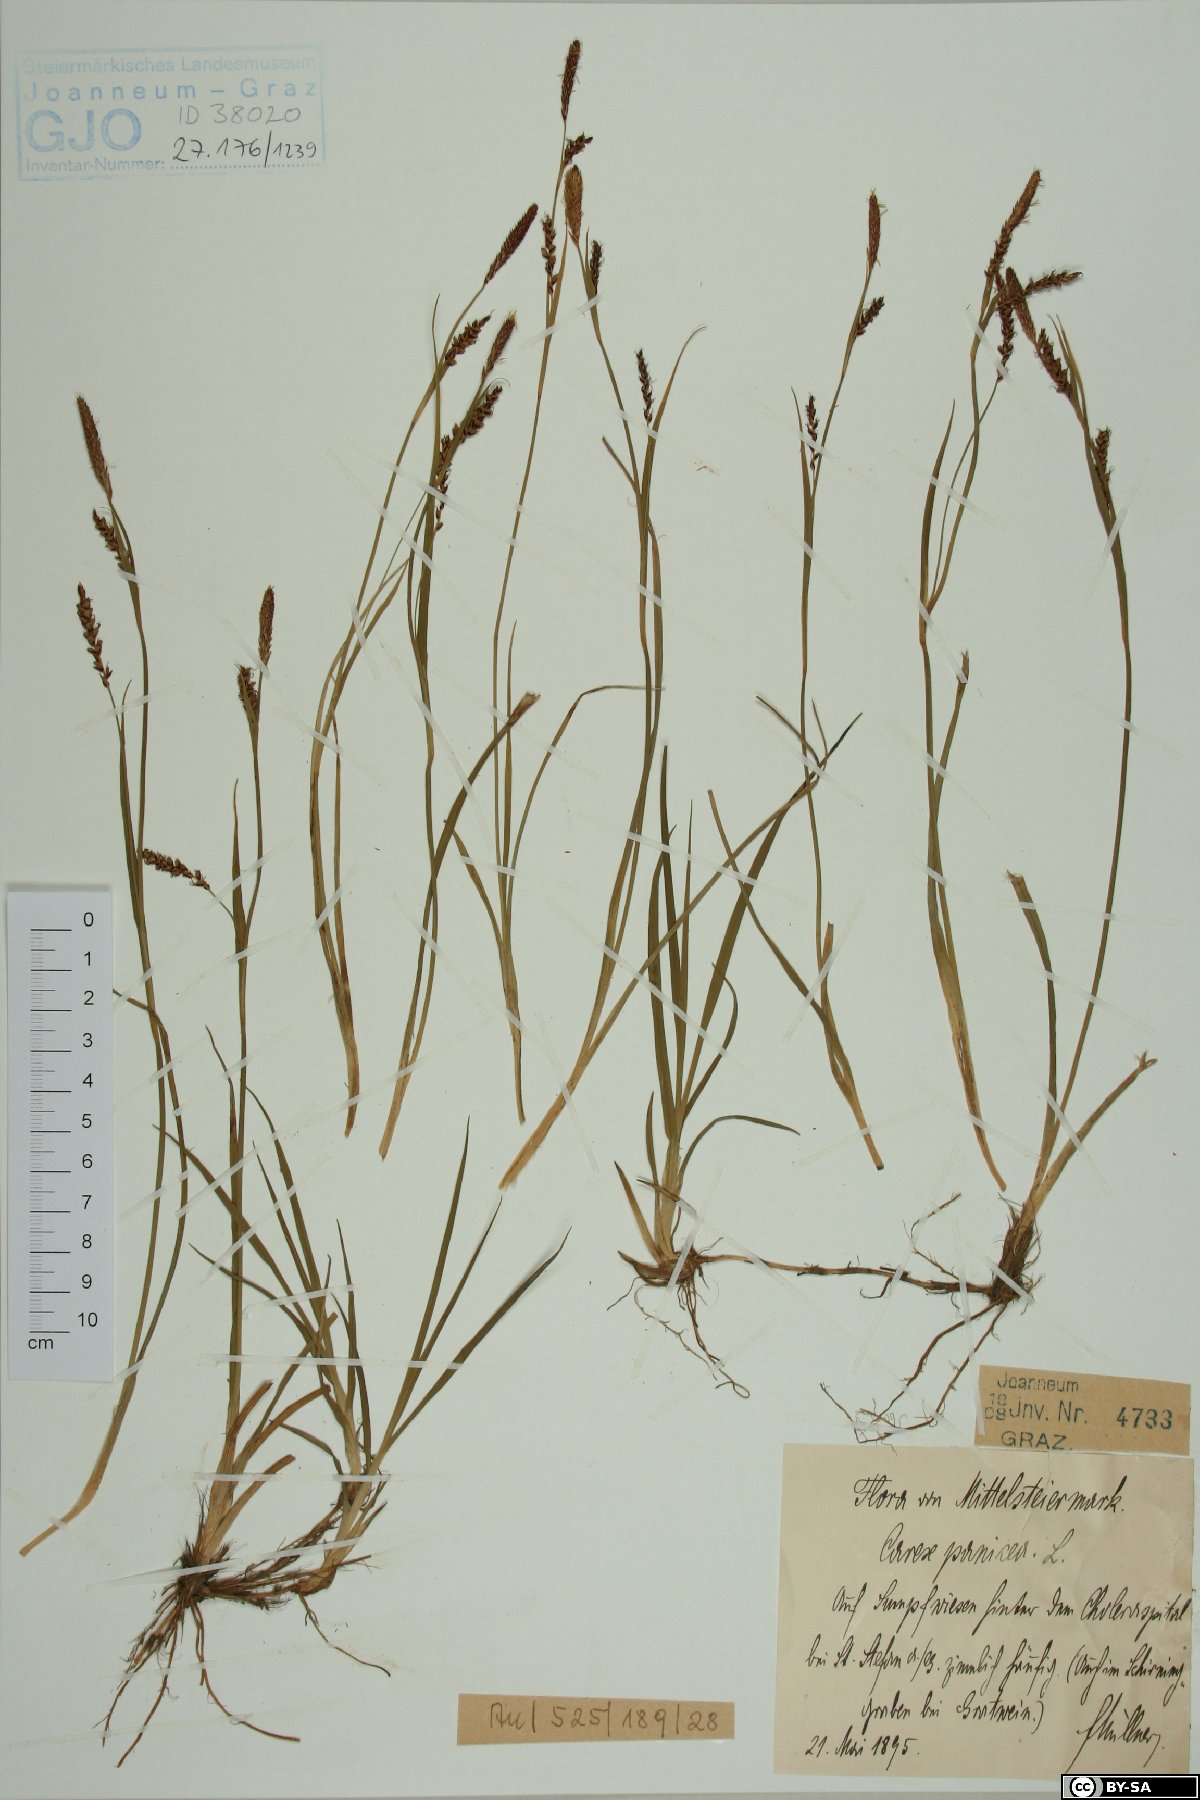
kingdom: Plantae
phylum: Tracheophyta
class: Liliopsida
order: Poales
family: Cyperaceae
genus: Carex
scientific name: Carex panicea
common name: Carnation sedge
